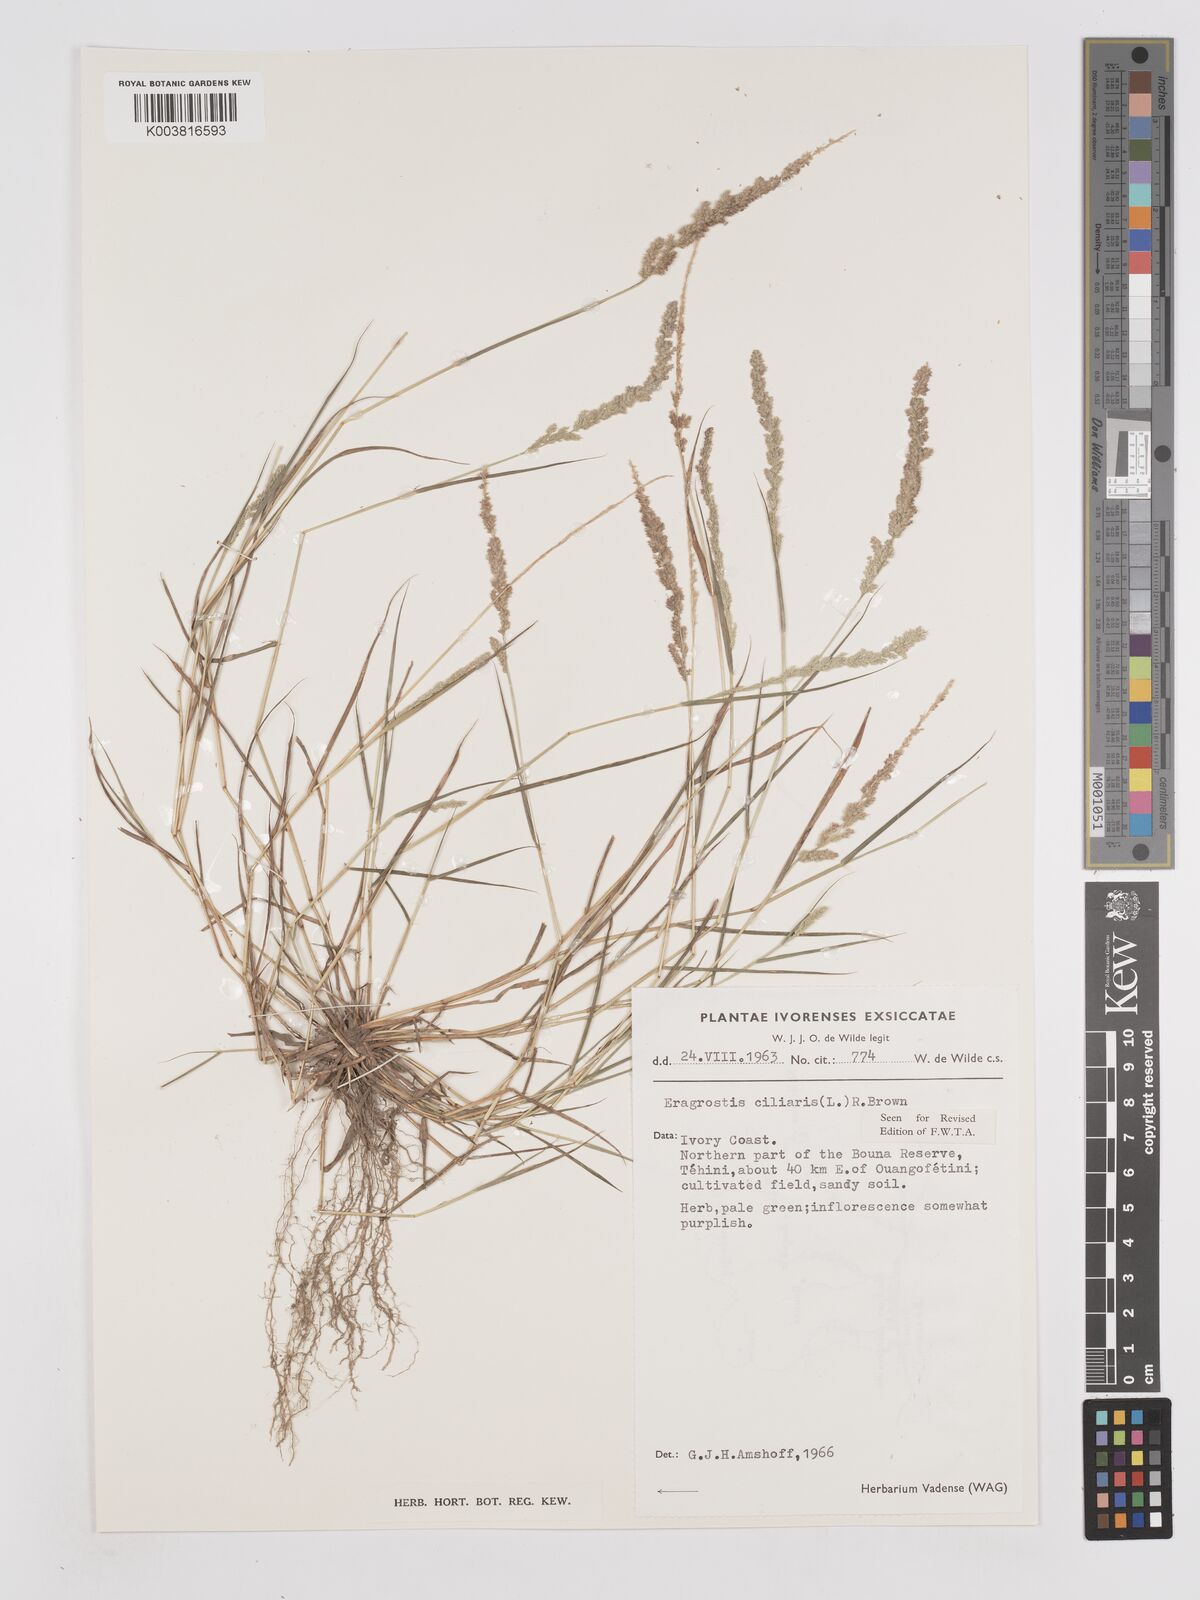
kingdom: Plantae
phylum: Tracheophyta
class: Liliopsida
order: Poales
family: Poaceae
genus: Eragrostis
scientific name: Eragrostis ciliaris
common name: Gophertail lovegrass
